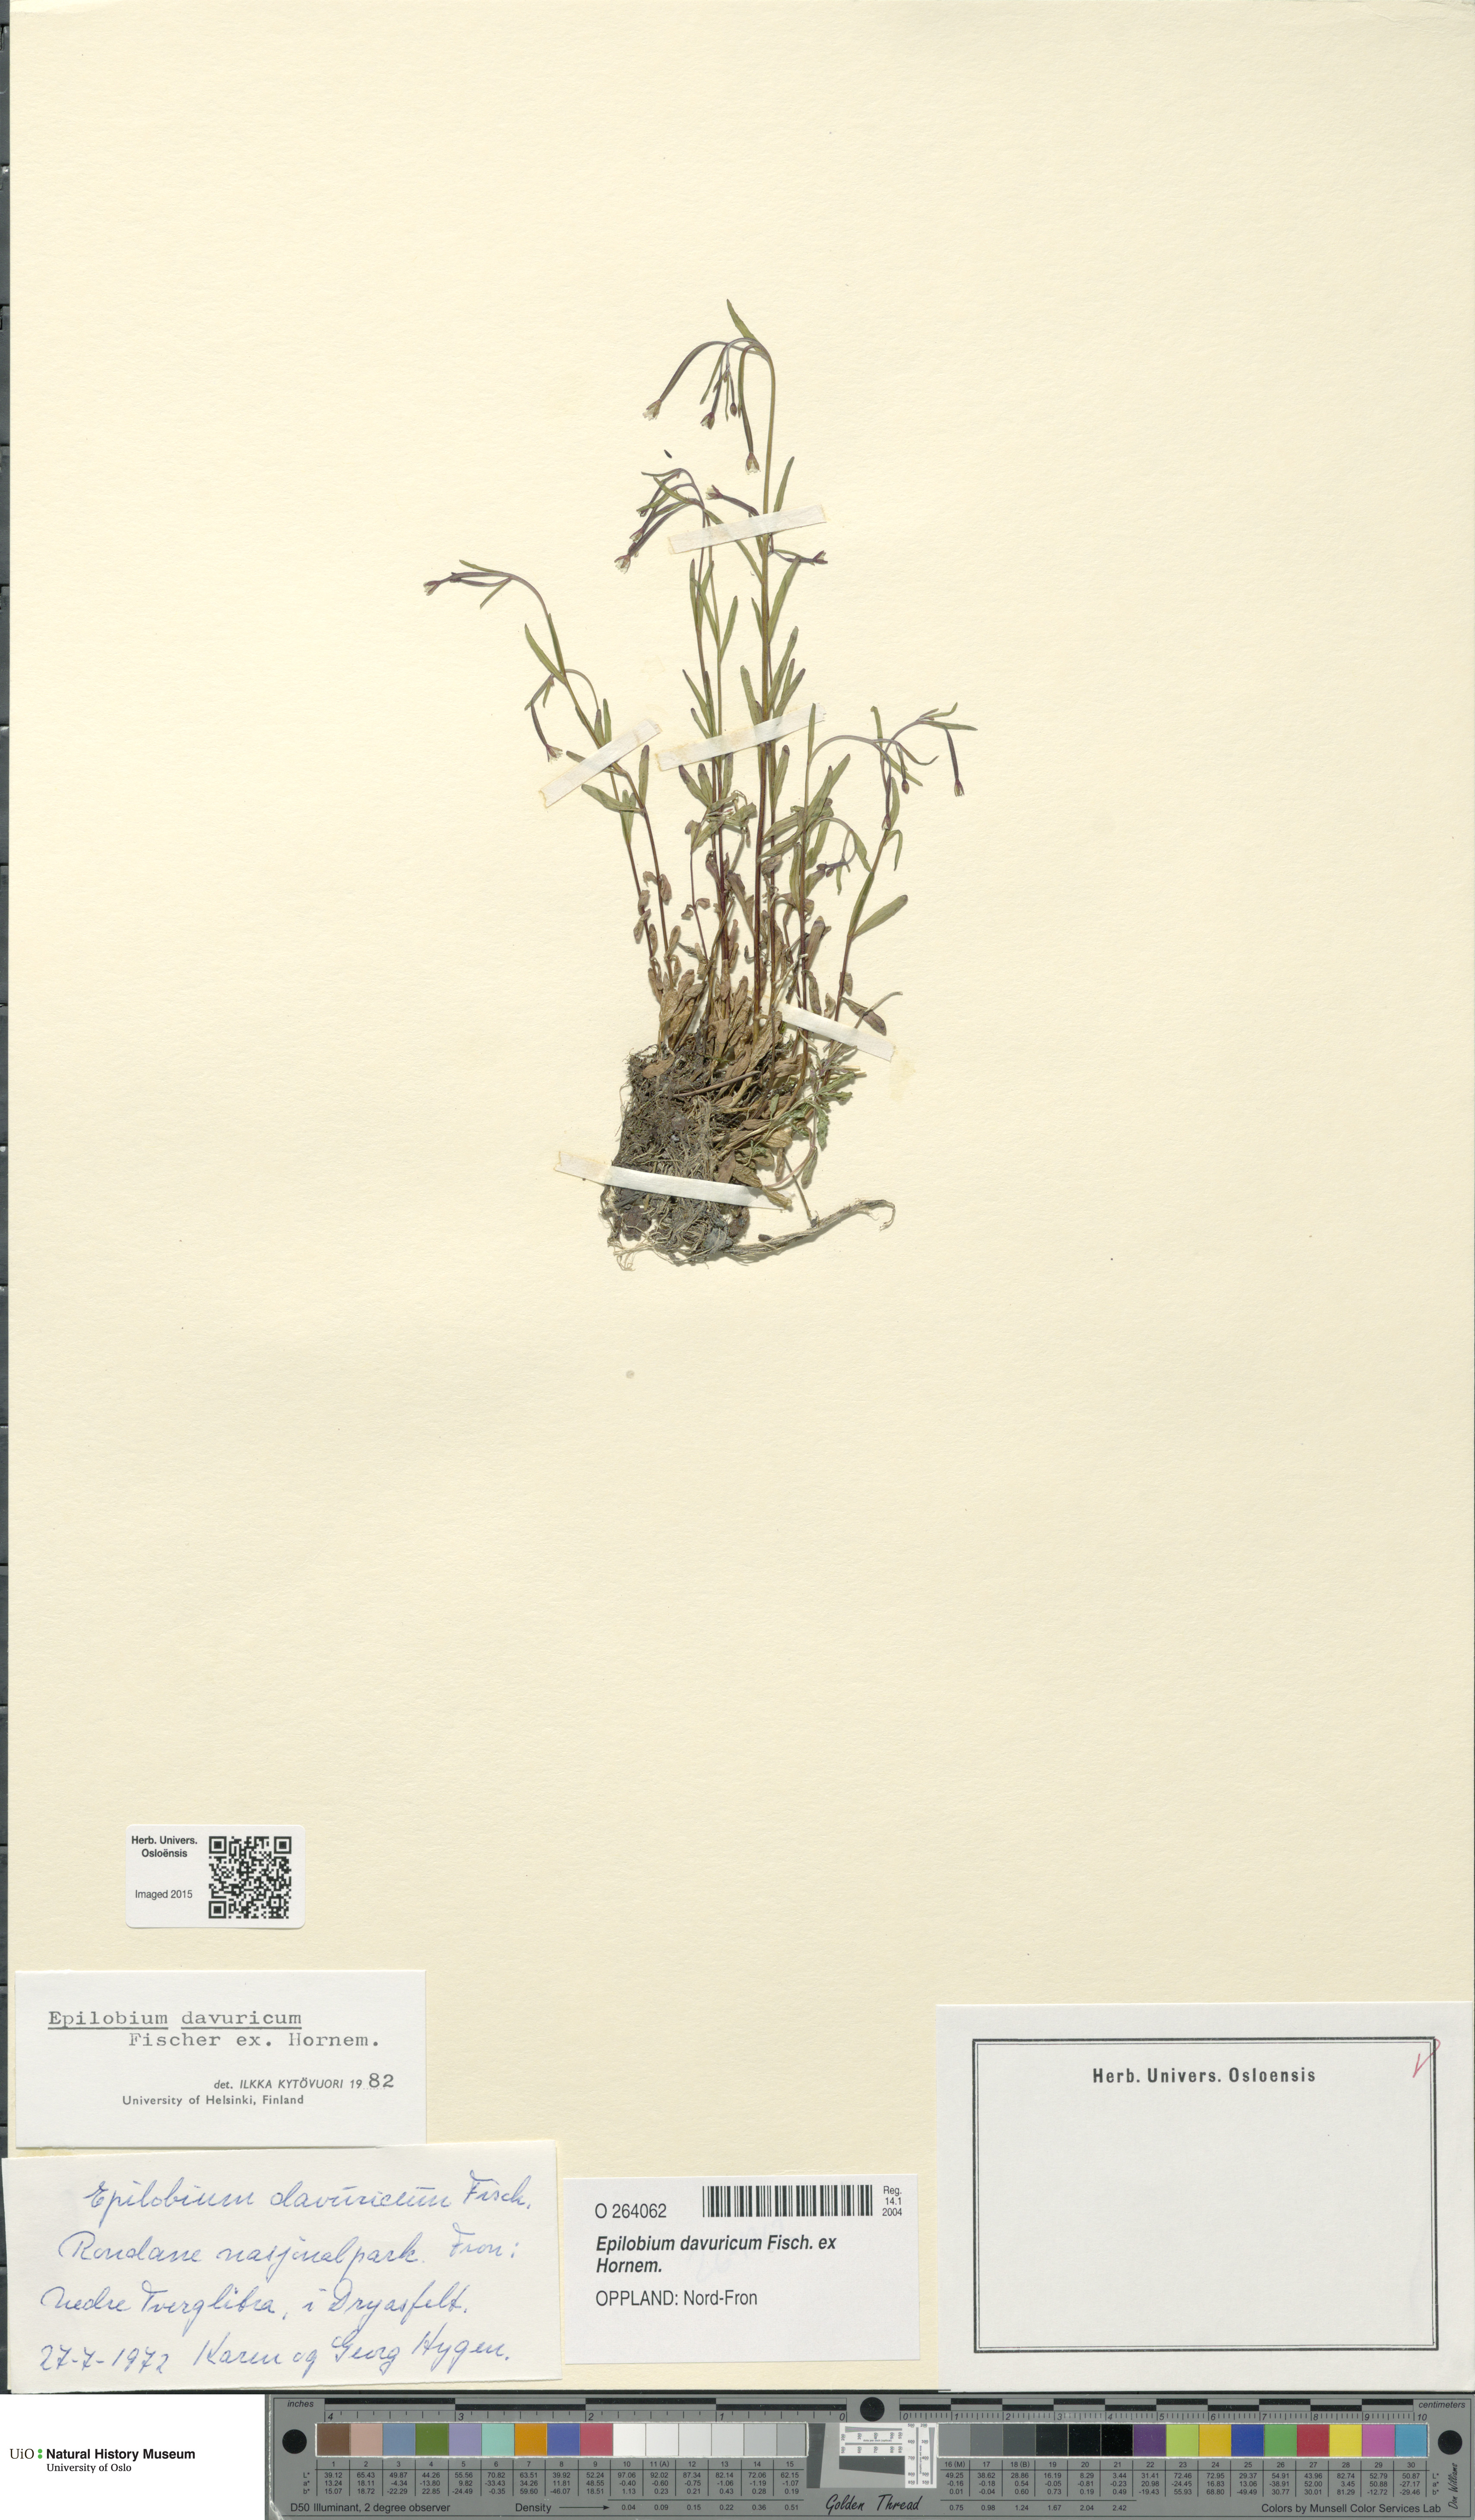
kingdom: Plantae
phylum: Tracheophyta
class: Magnoliopsida
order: Myrtales
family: Onagraceae
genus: Epilobium
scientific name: Epilobium davuricum
